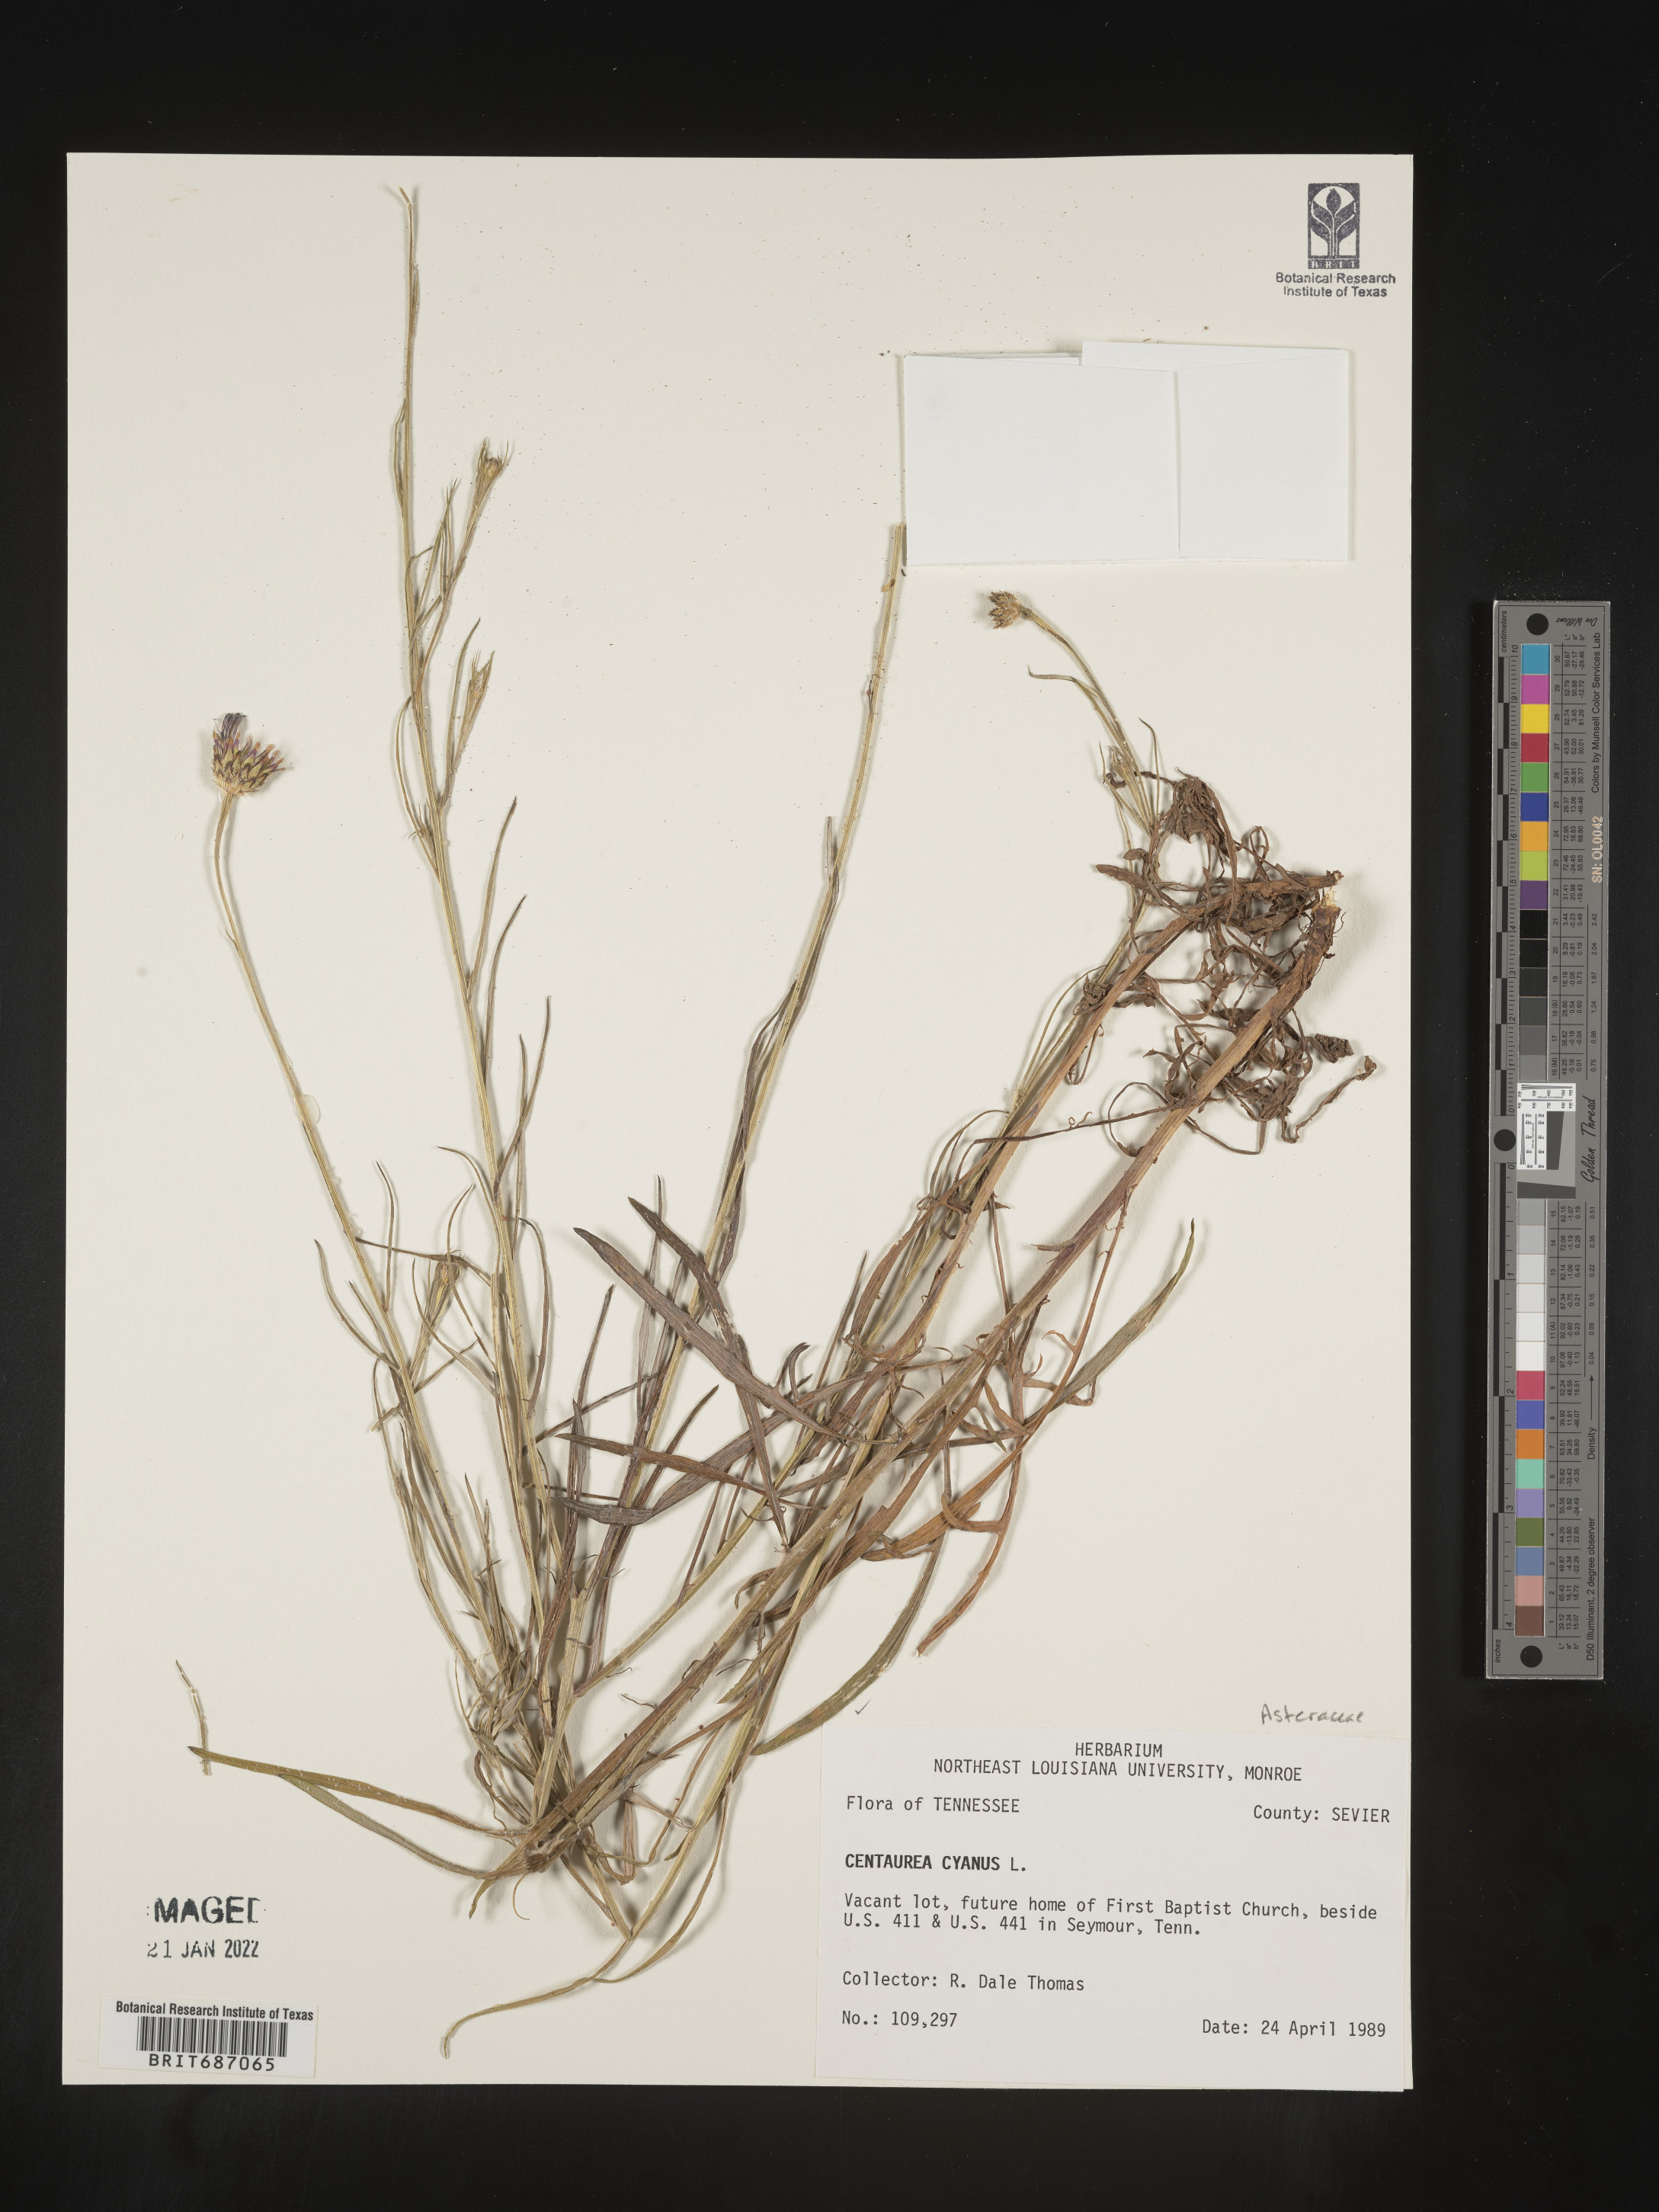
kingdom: Plantae
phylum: Tracheophyta
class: Magnoliopsida
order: Asterales
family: Asteraceae
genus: Centaurea
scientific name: Centaurea cyanus
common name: Cornflower
